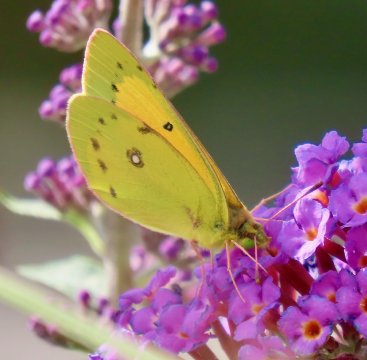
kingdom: Animalia
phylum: Arthropoda
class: Insecta
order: Lepidoptera
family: Pieridae
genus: Colias
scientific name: Colias eurytheme
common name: Orange Sulphur
